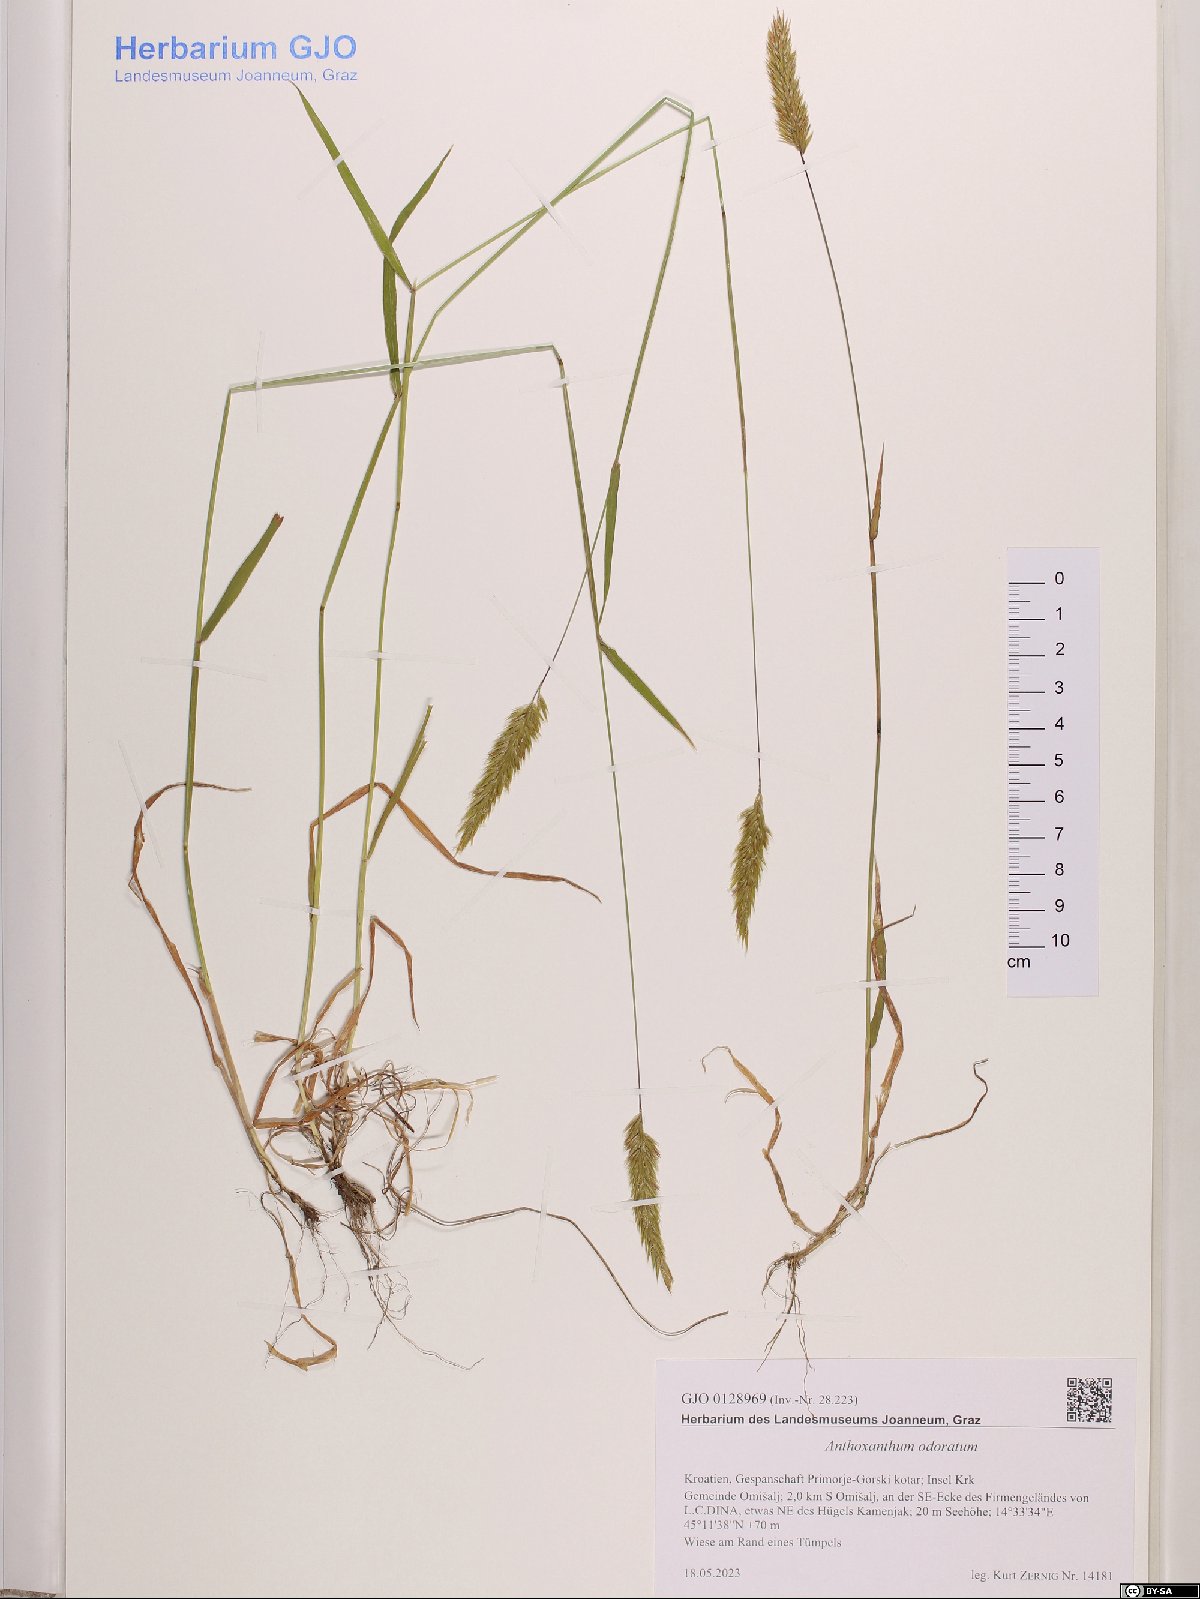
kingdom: Plantae
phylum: Tracheophyta
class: Liliopsida
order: Poales
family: Poaceae
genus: Anthoxanthum
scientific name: Anthoxanthum odoratum
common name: Sweet vernalgrass
